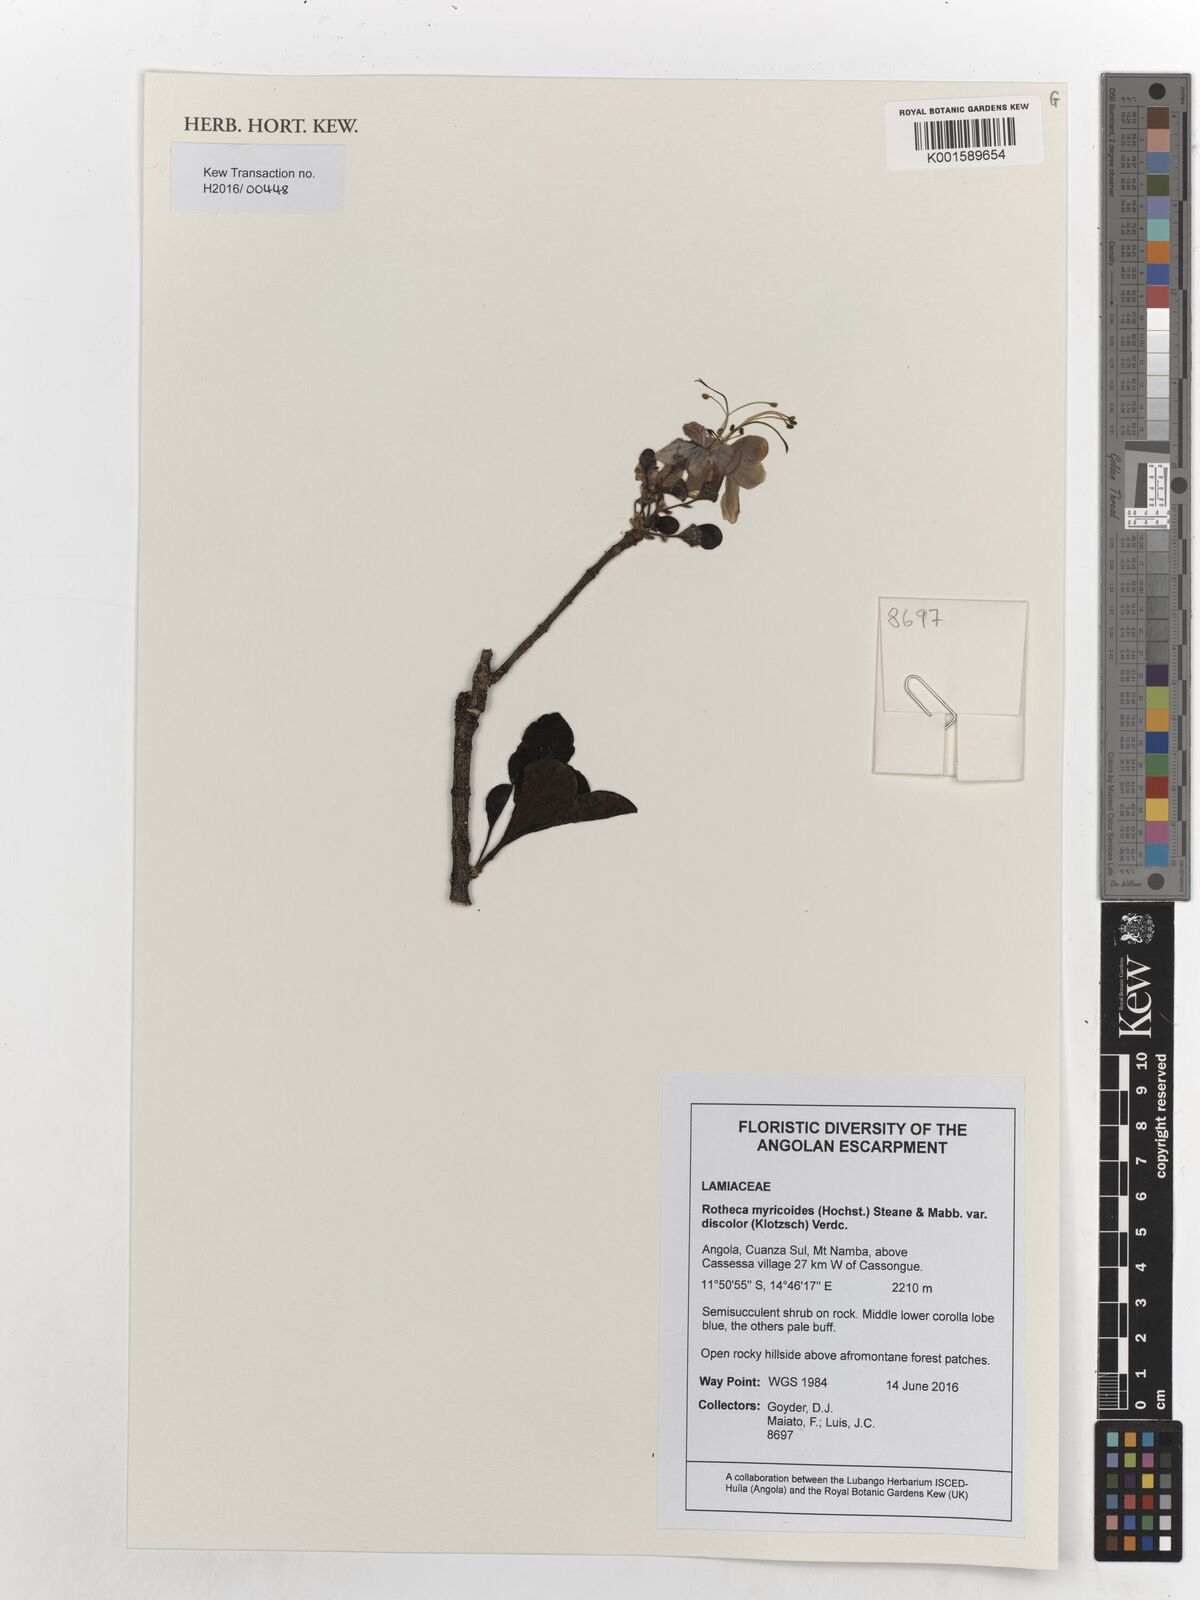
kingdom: Plantae
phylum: Tracheophyta
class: Magnoliopsida
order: Lamiales
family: Lamiaceae
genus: Rotheca
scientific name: Rotheca myricoides
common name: Cats-whiskers
